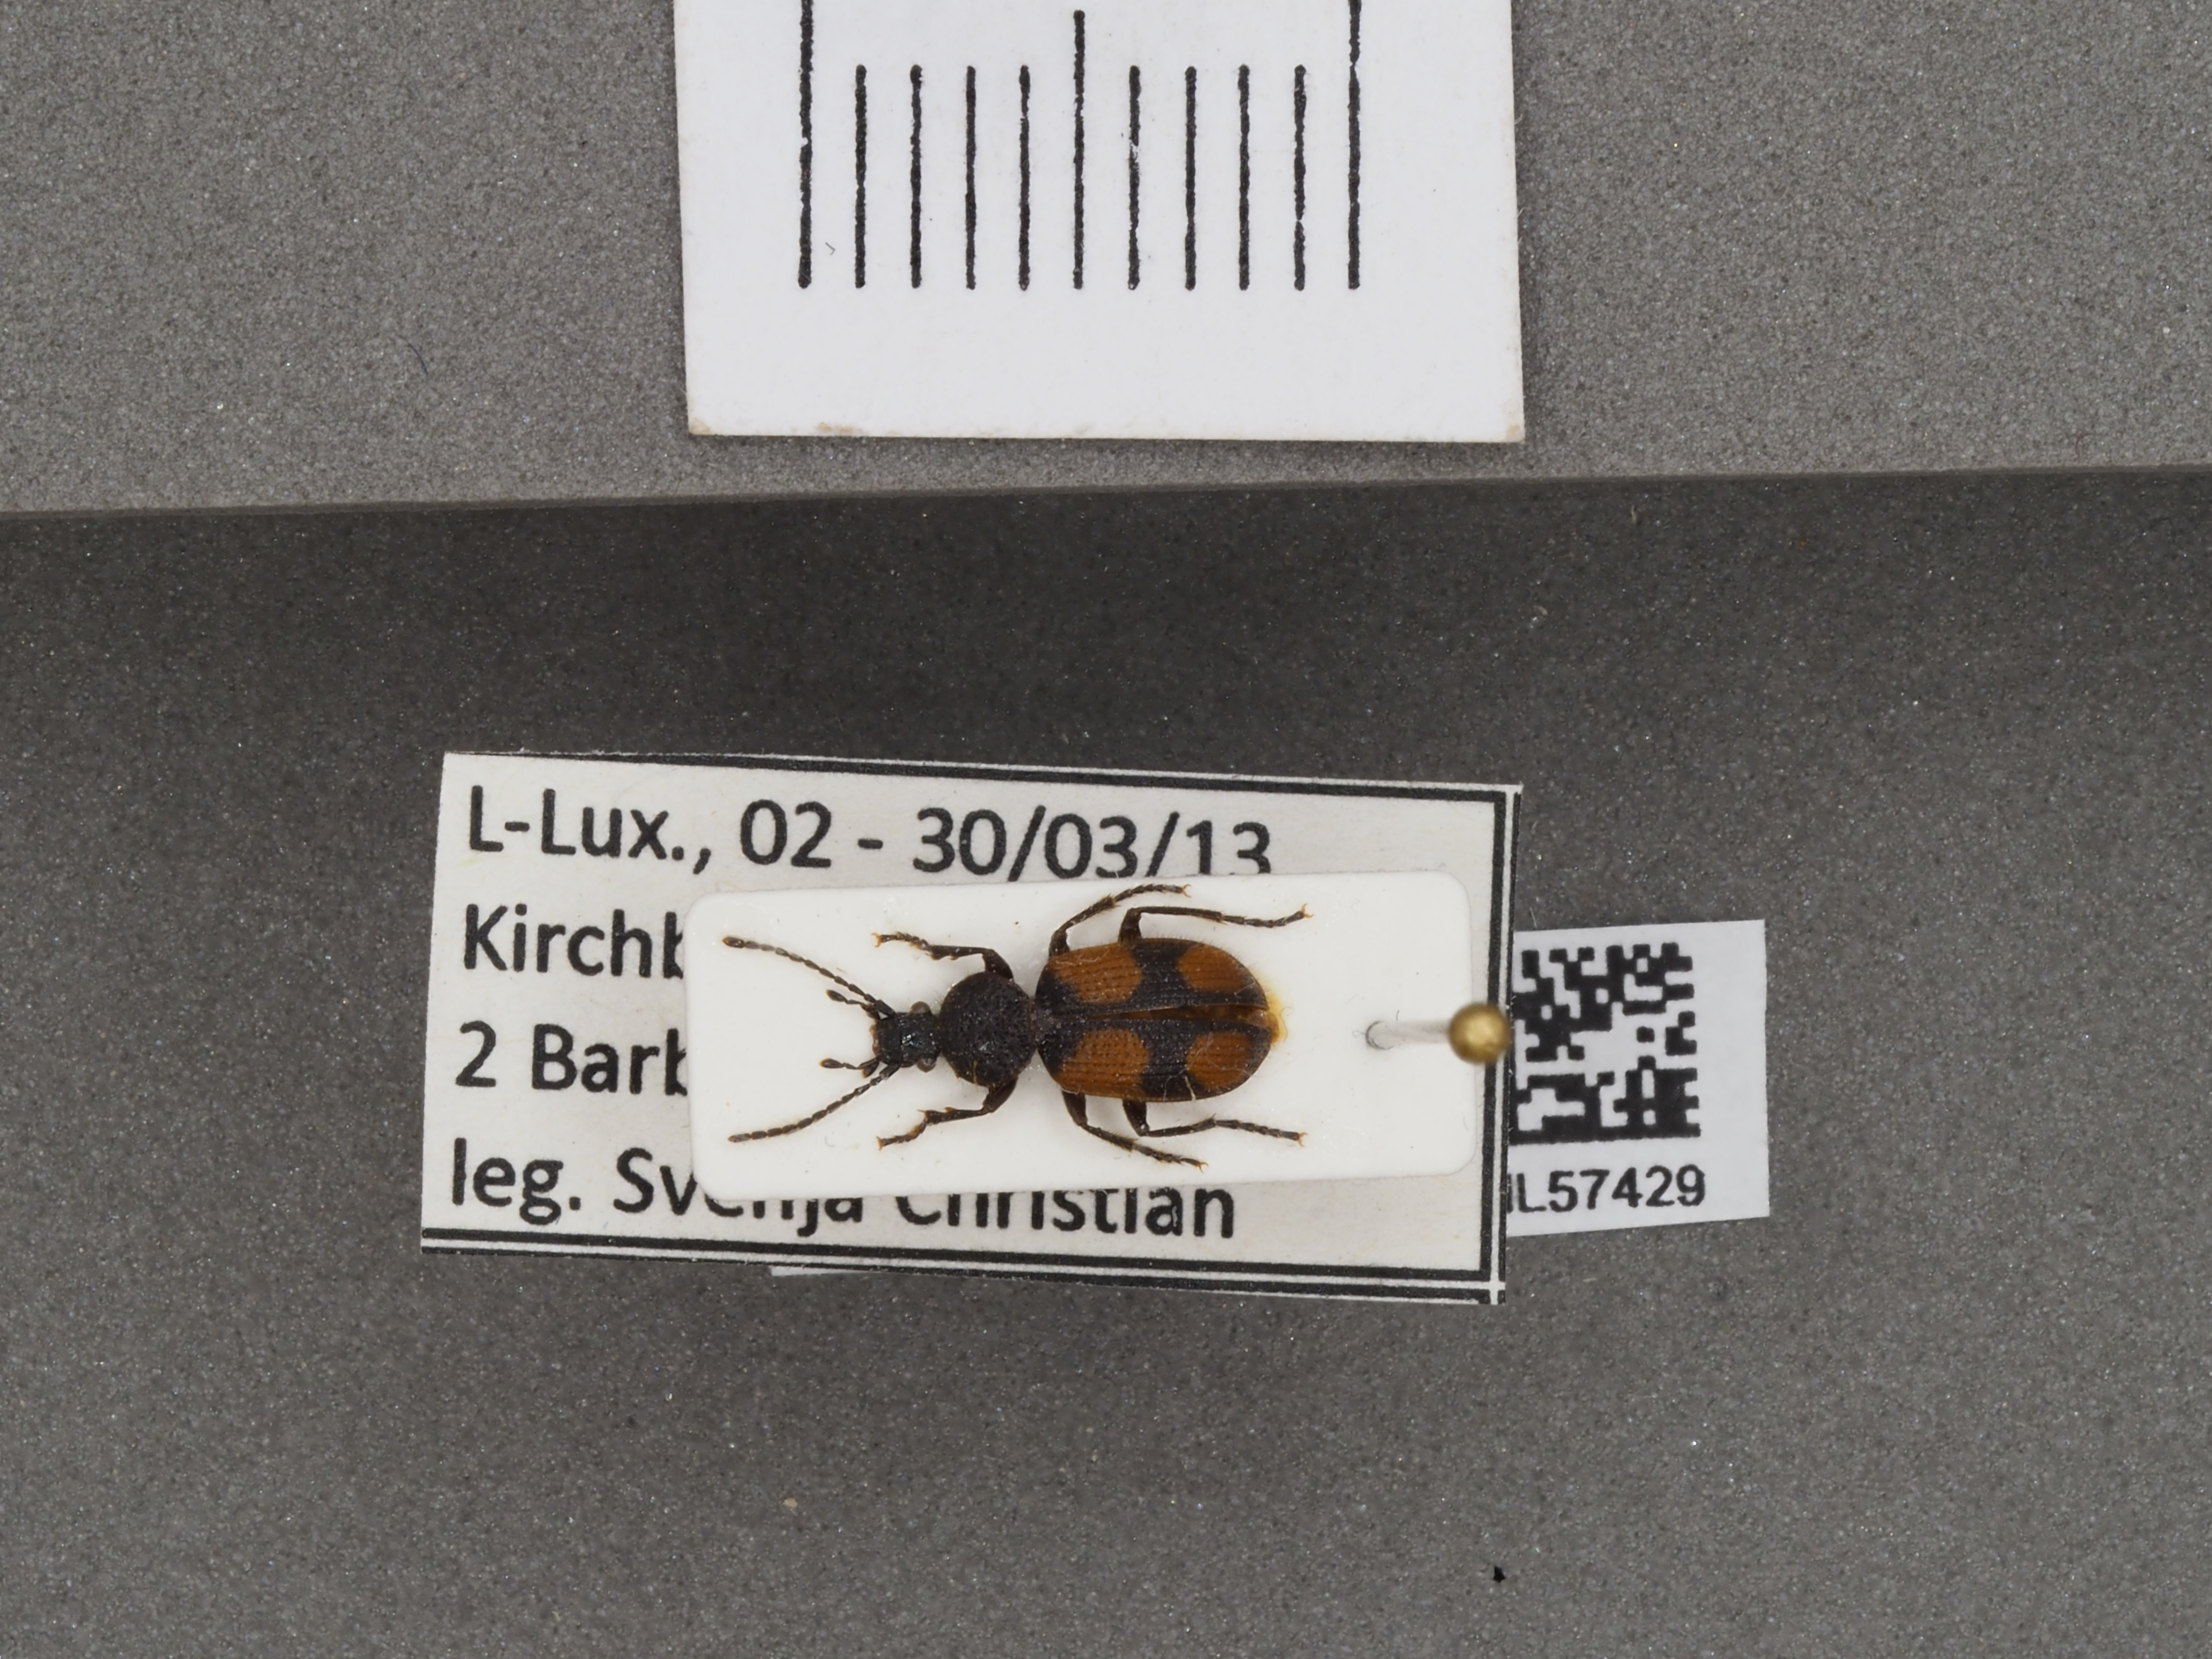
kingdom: Animalia
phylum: Arthropoda
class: Insecta
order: Coleoptera
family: Carabidae
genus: Panagaeus
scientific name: Panagaeus bipustulatus
